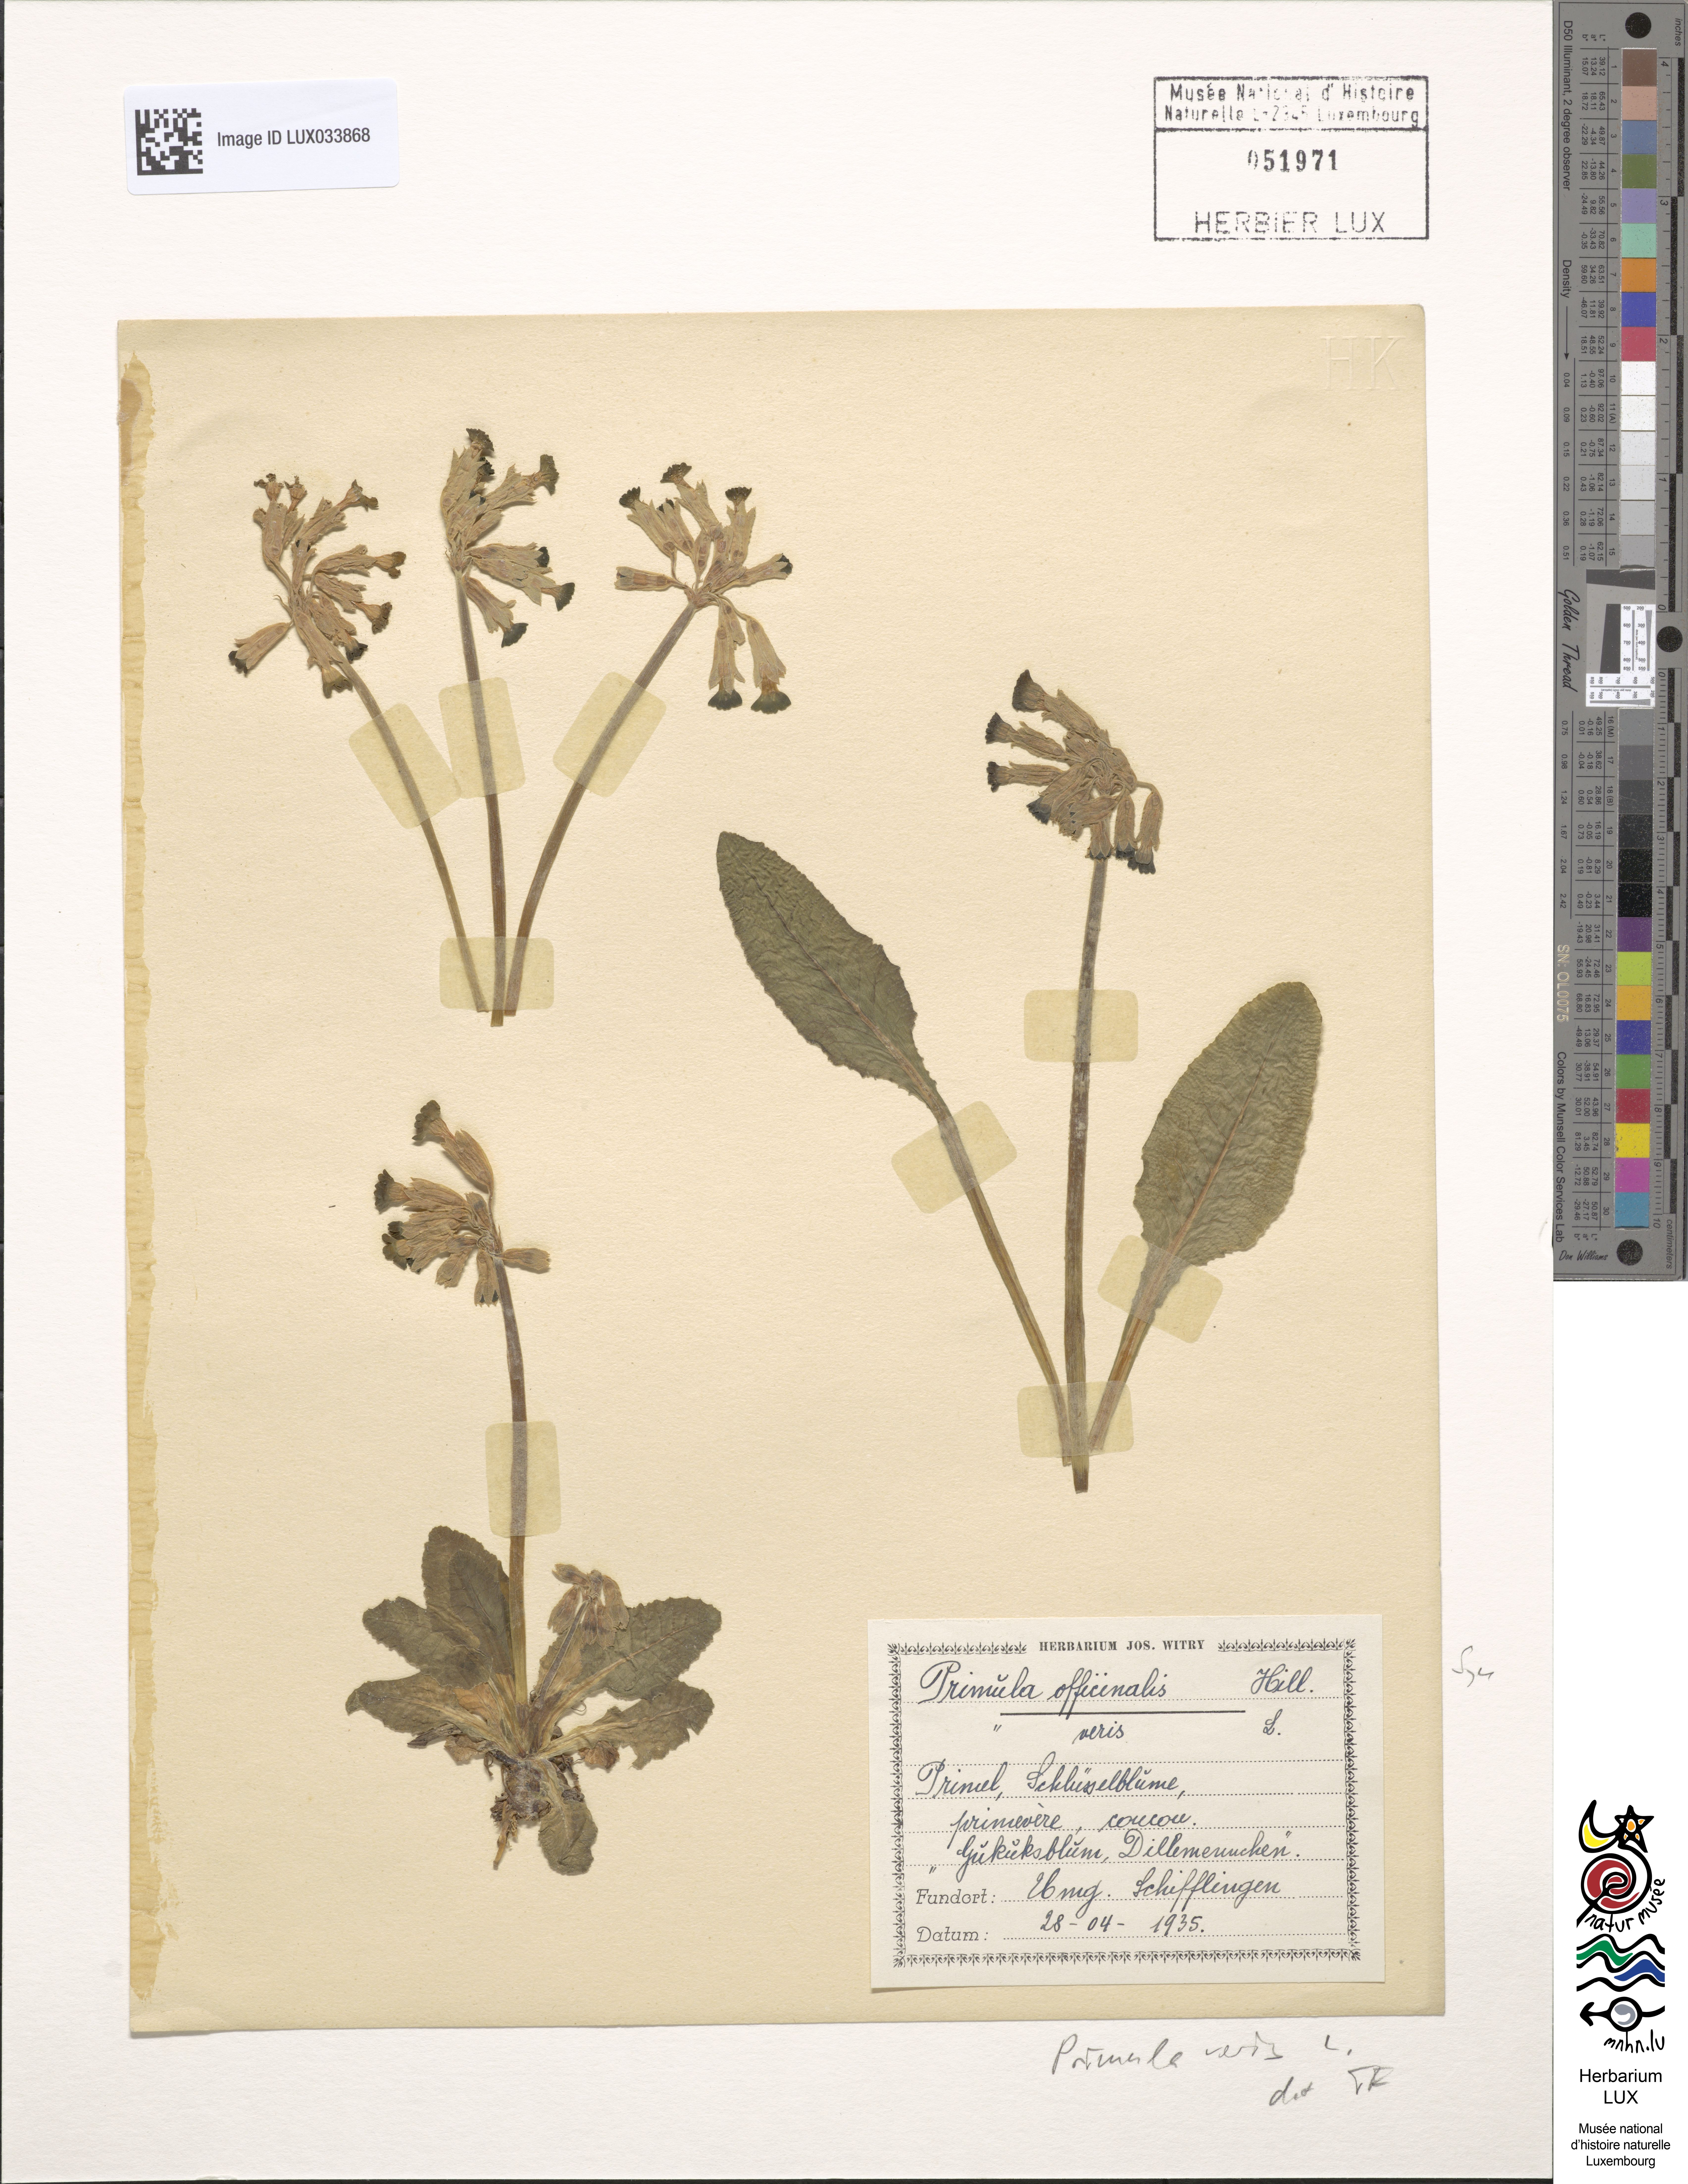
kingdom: Plantae
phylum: Tracheophyta
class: Magnoliopsida
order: Ericales
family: Primulaceae
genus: Primula
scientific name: Primula veris
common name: Cowslip
